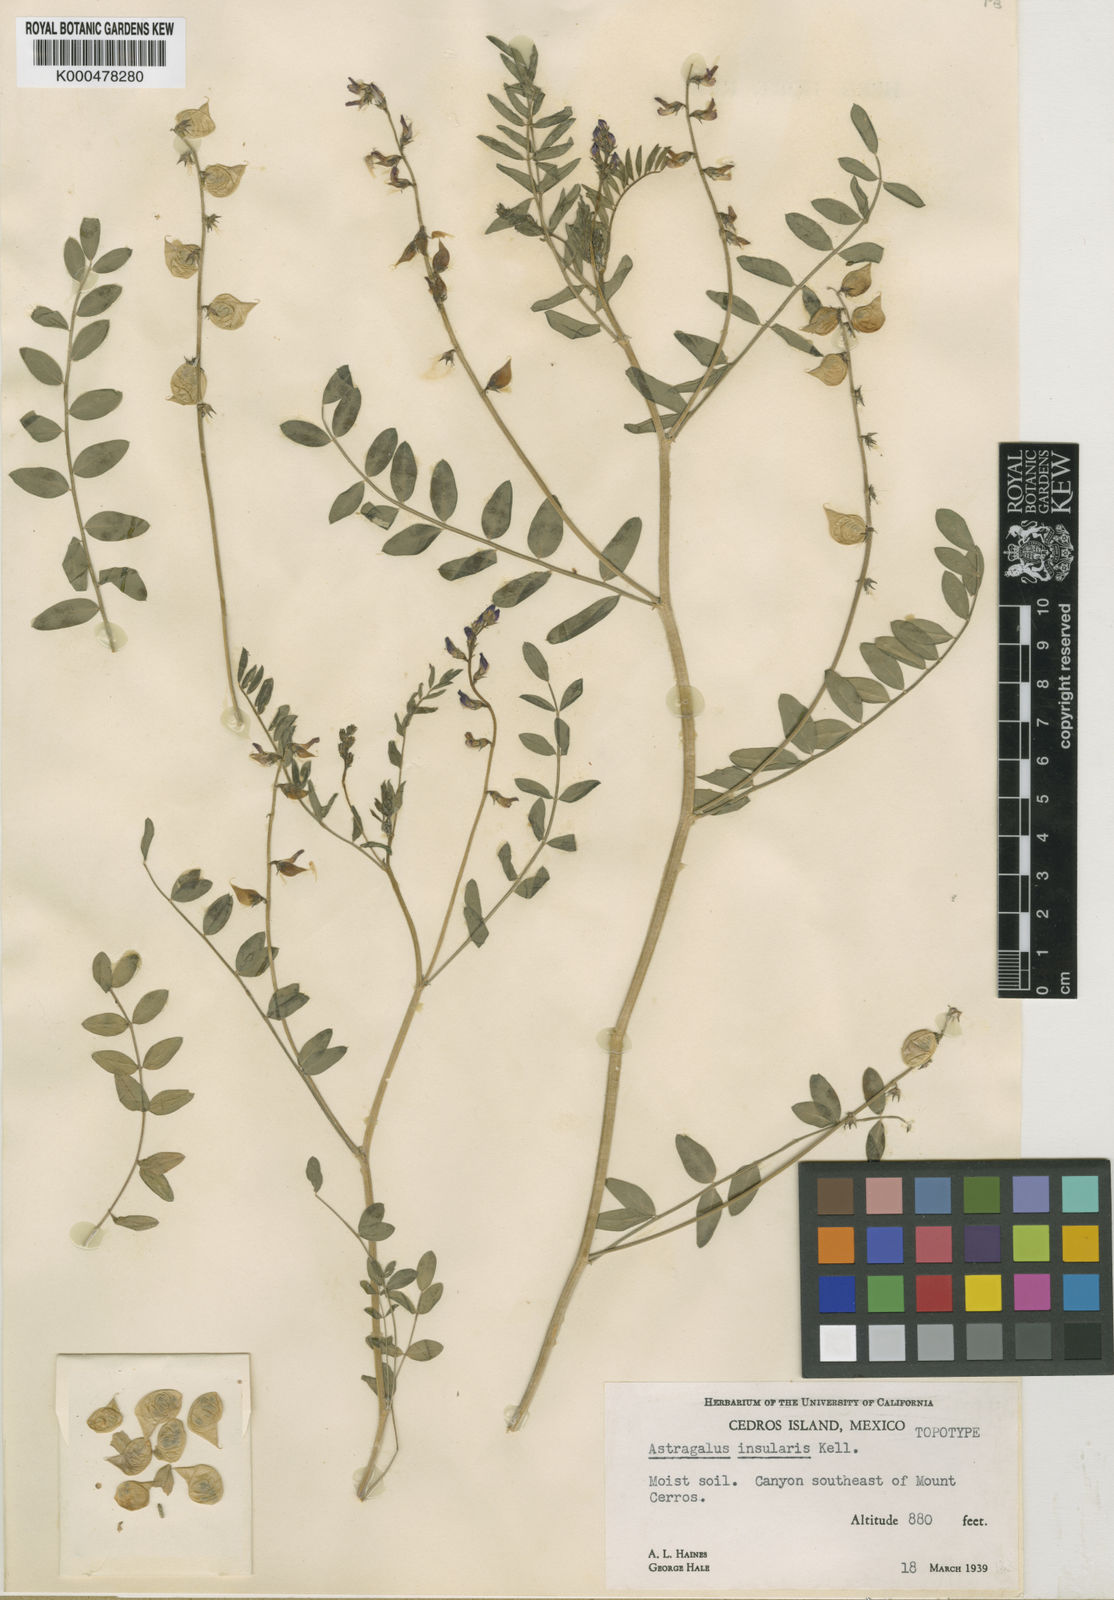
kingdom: Plantae
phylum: Tracheophyta
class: Magnoliopsida
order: Fabales
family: Fabaceae
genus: Astragalus
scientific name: Astragalus insularis
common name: Cedros milk-vetch
